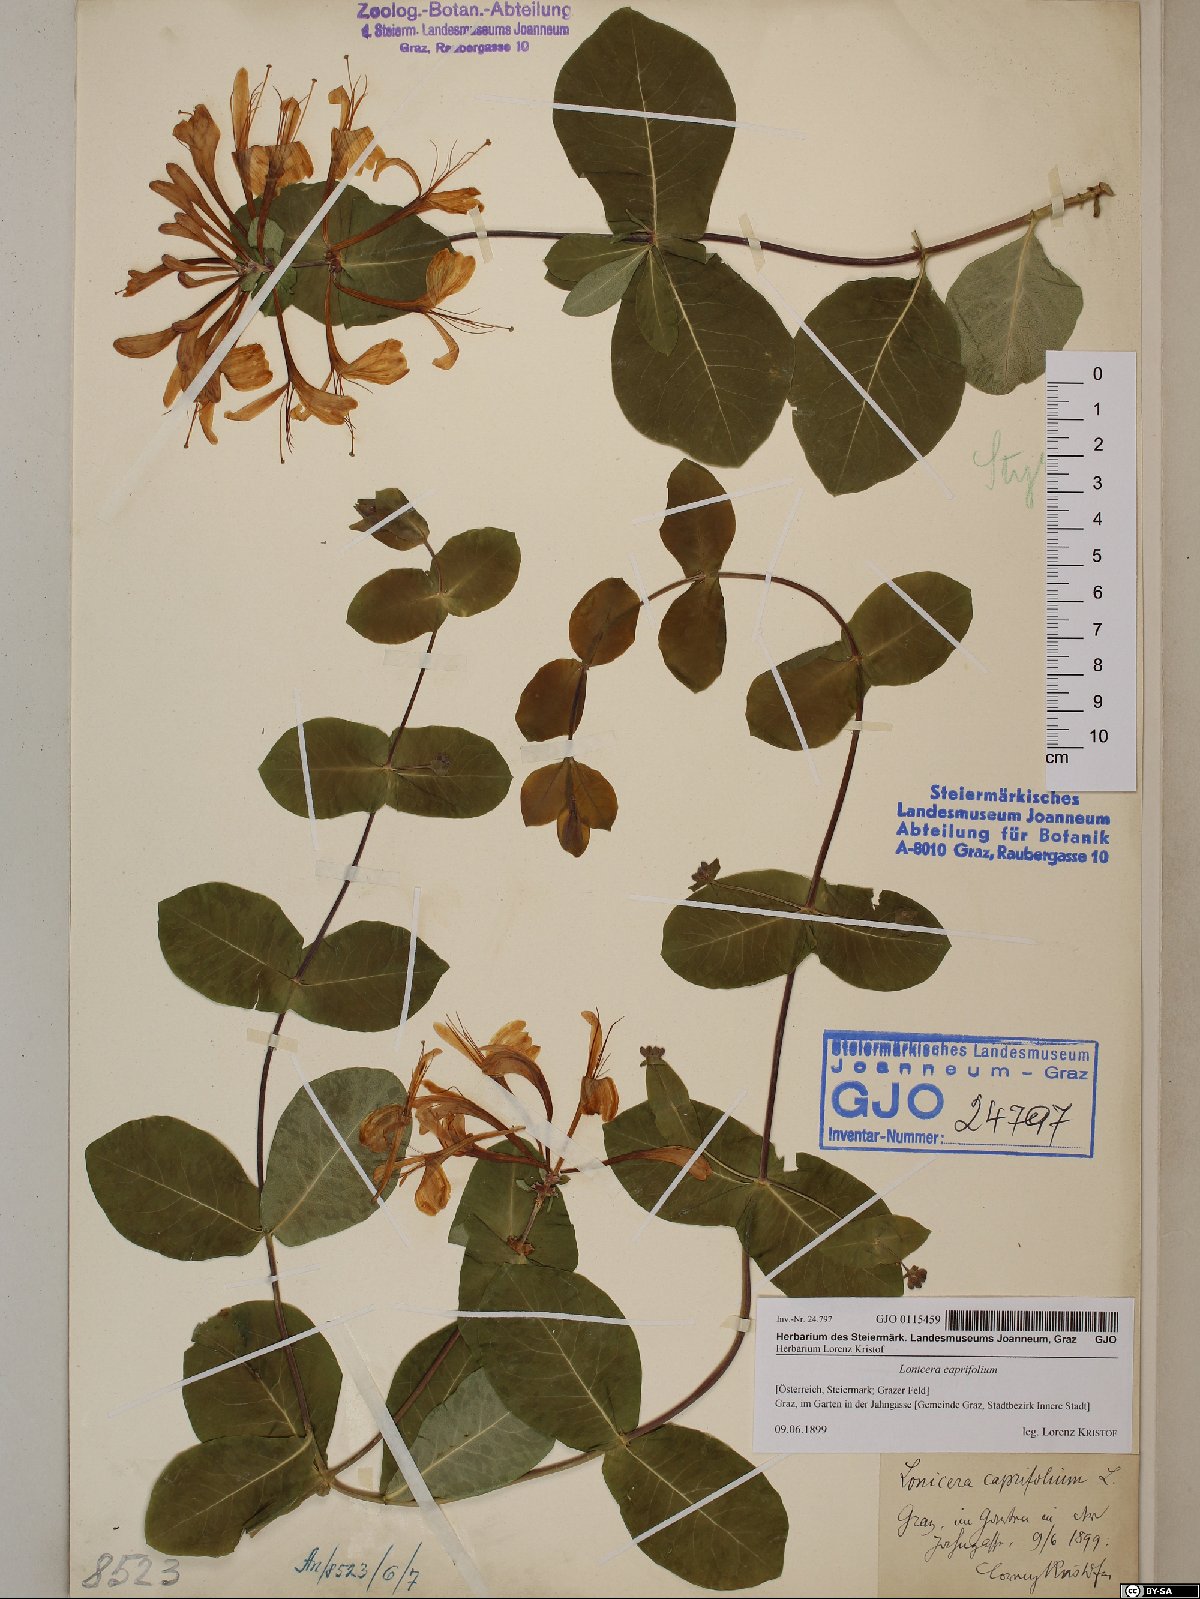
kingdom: Plantae
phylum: Tracheophyta
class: Magnoliopsida
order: Dipsacales
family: Caprifoliaceae
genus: Lonicera
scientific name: Lonicera caprifolium
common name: Perfoliate honeysuckle
